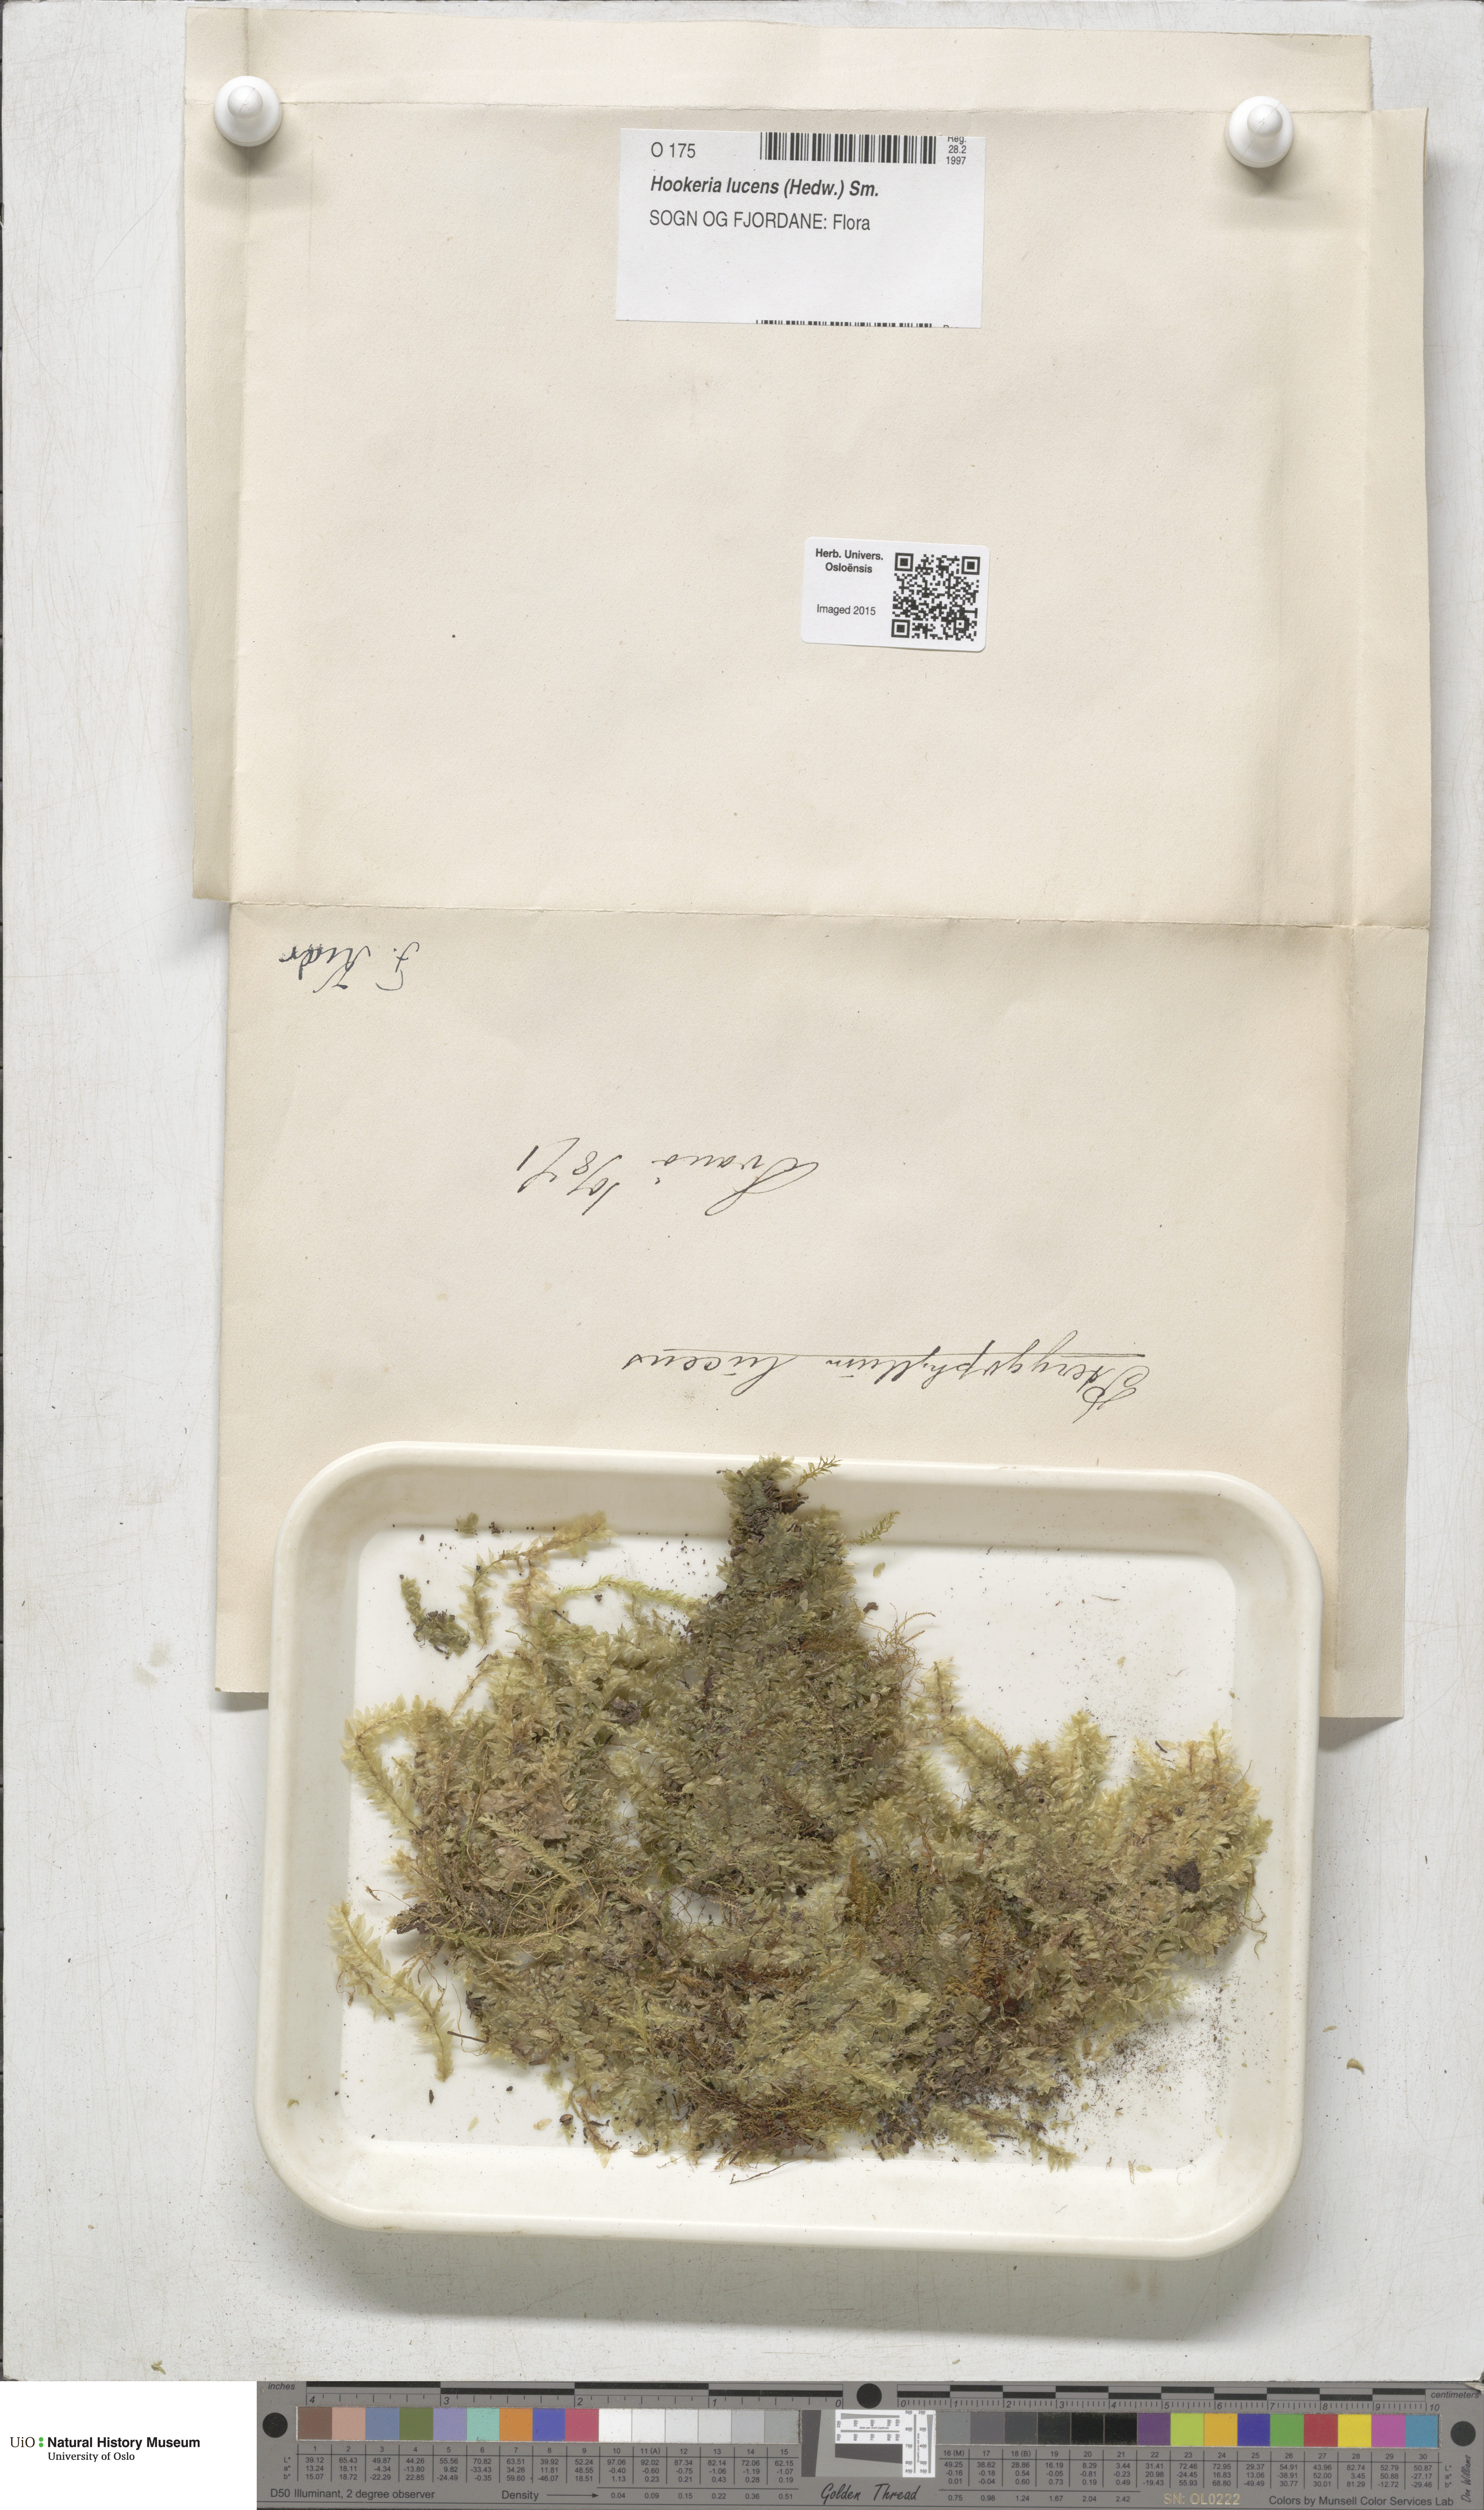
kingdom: Plantae
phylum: Bryophyta
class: Bryopsida
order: Hookeriales
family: Hookeriaceae
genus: Hookeria
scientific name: Hookeria lucens
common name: Shining hookeria
